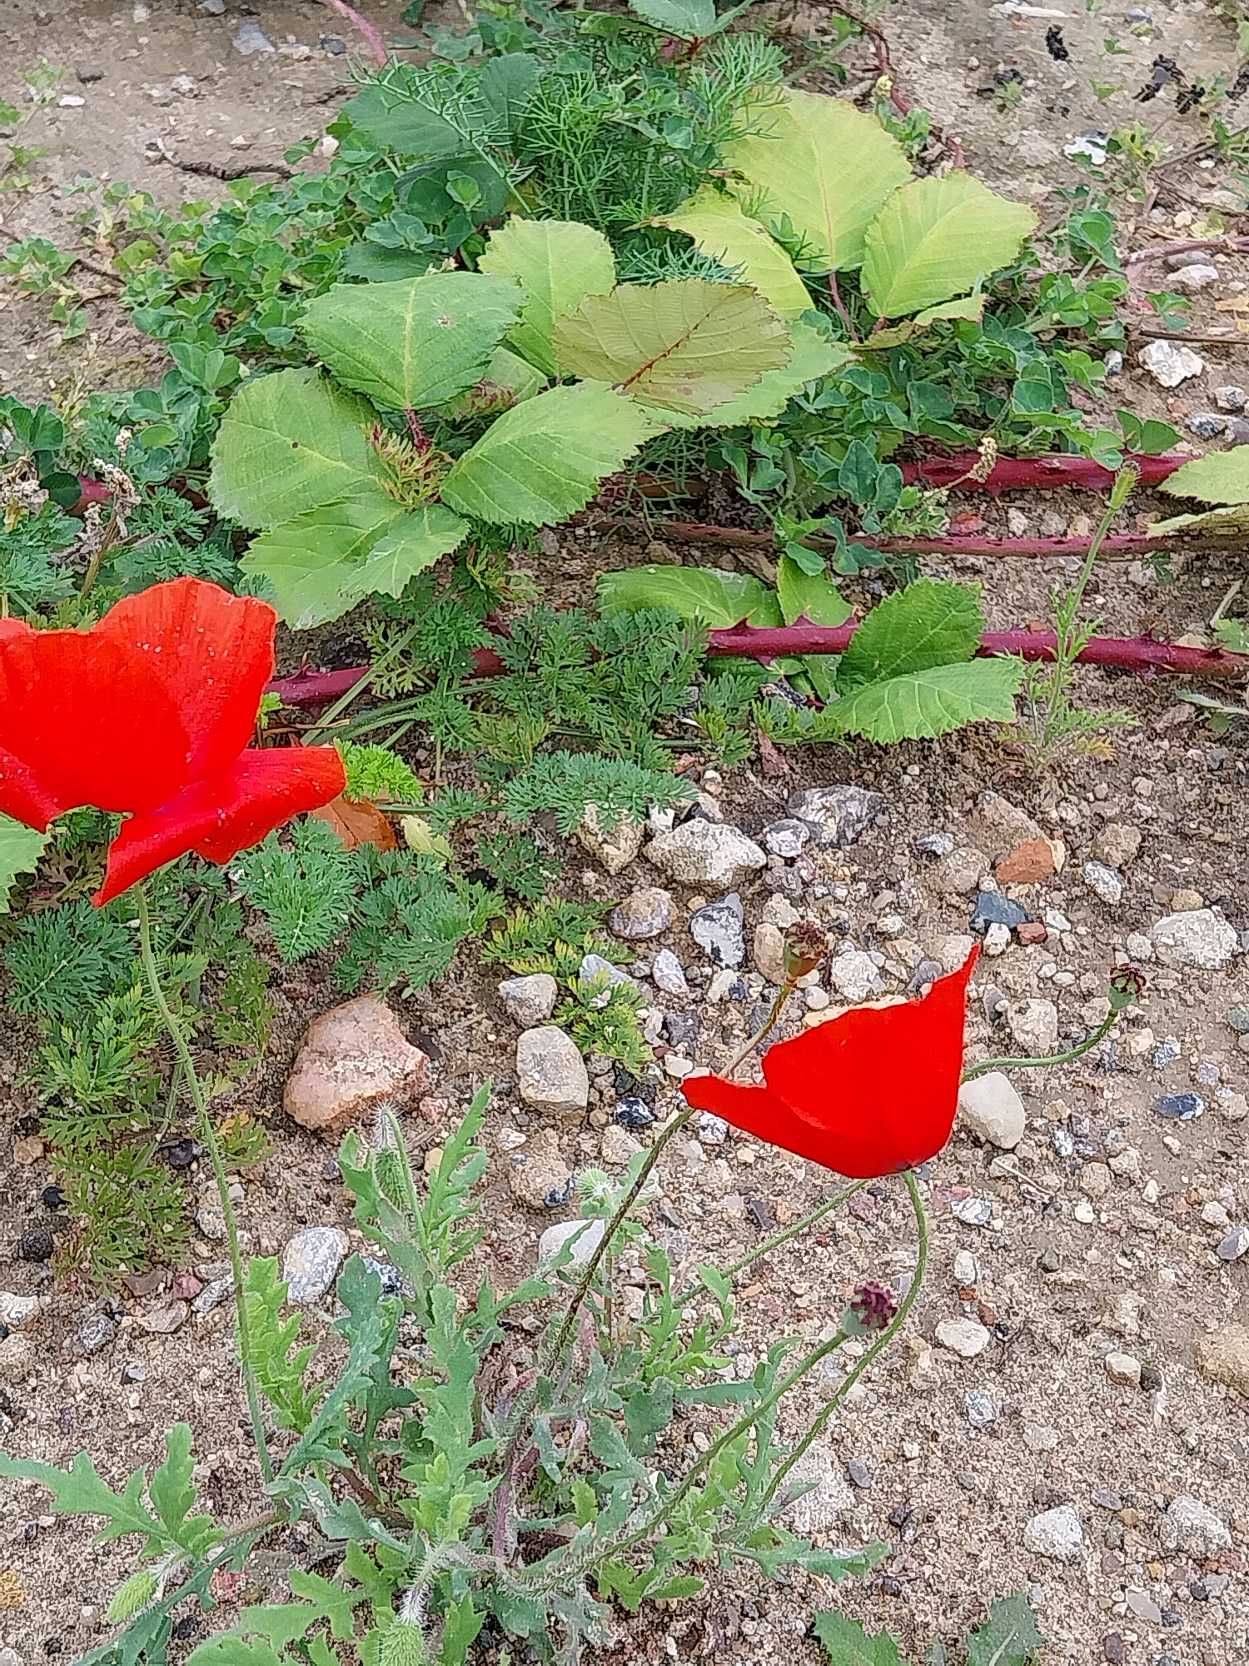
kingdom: Plantae
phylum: Tracheophyta
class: Magnoliopsida
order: Ranunculales
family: Papaveraceae
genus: Papaver
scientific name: Papaver rhoeas
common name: Korn-valmue
